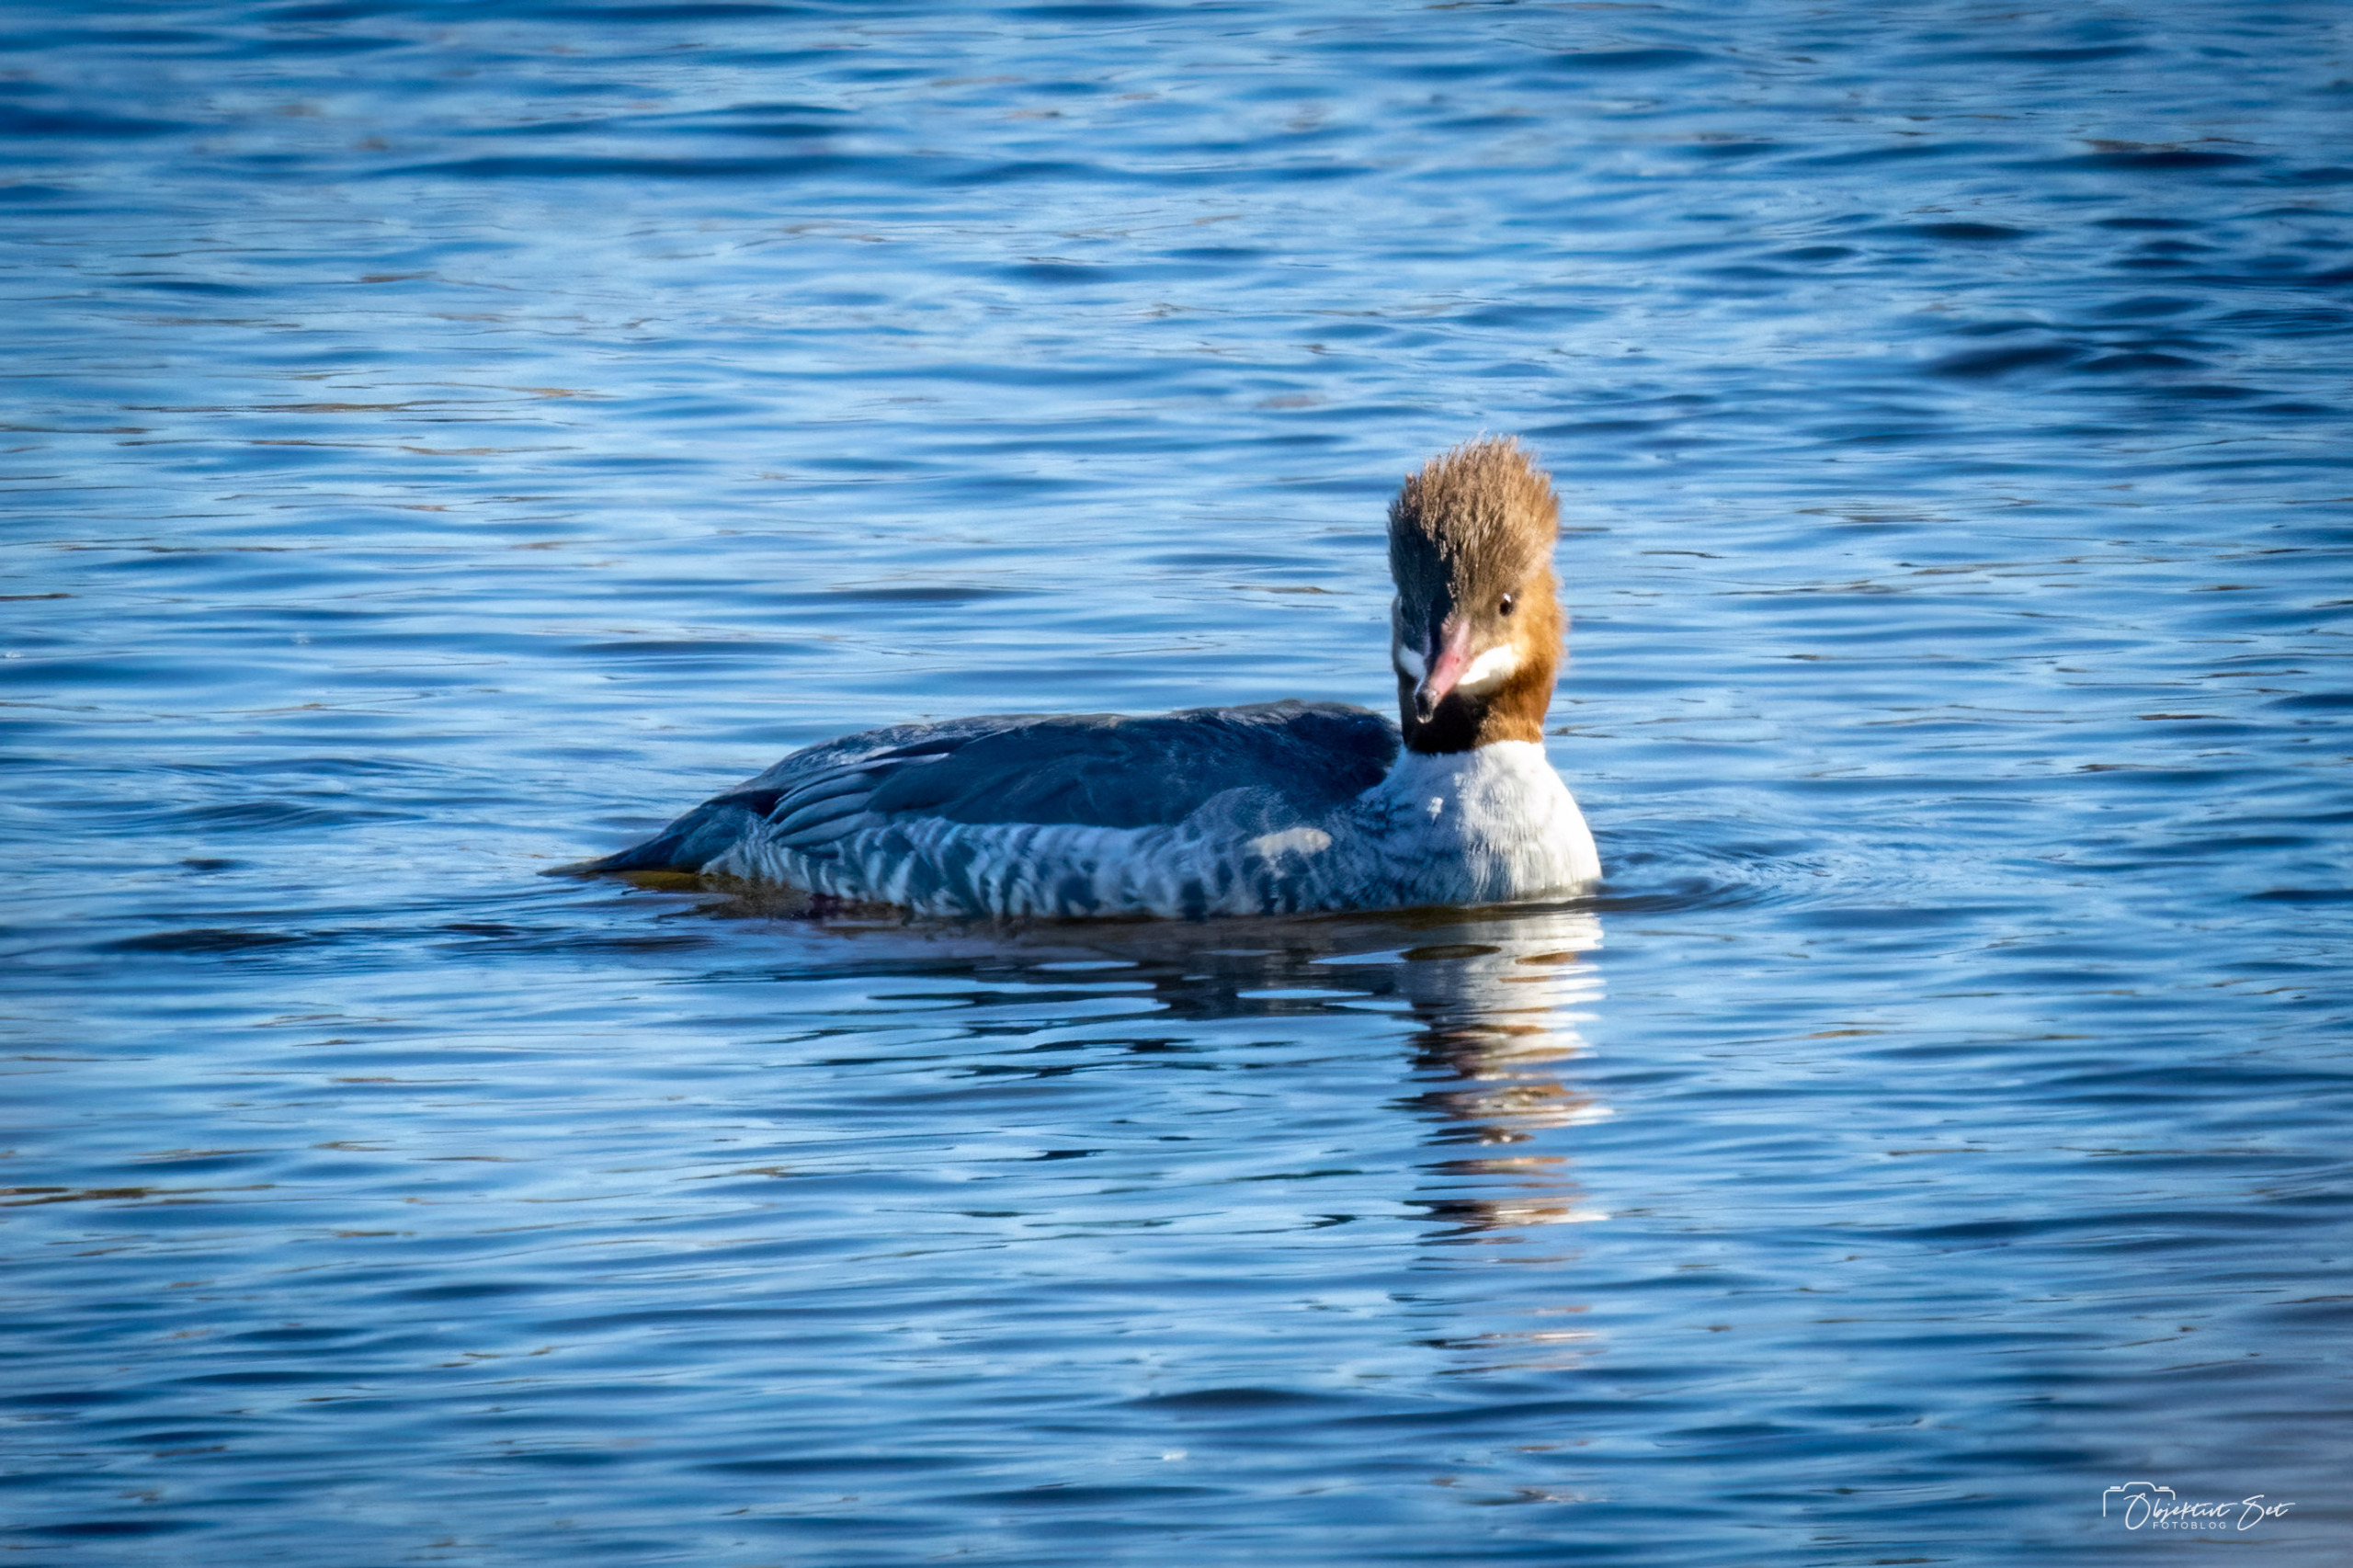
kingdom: Animalia
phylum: Chordata
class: Aves
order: Anseriformes
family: Anatidae
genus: Mergus
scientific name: Mergus merganser
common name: Stor skallesluger
